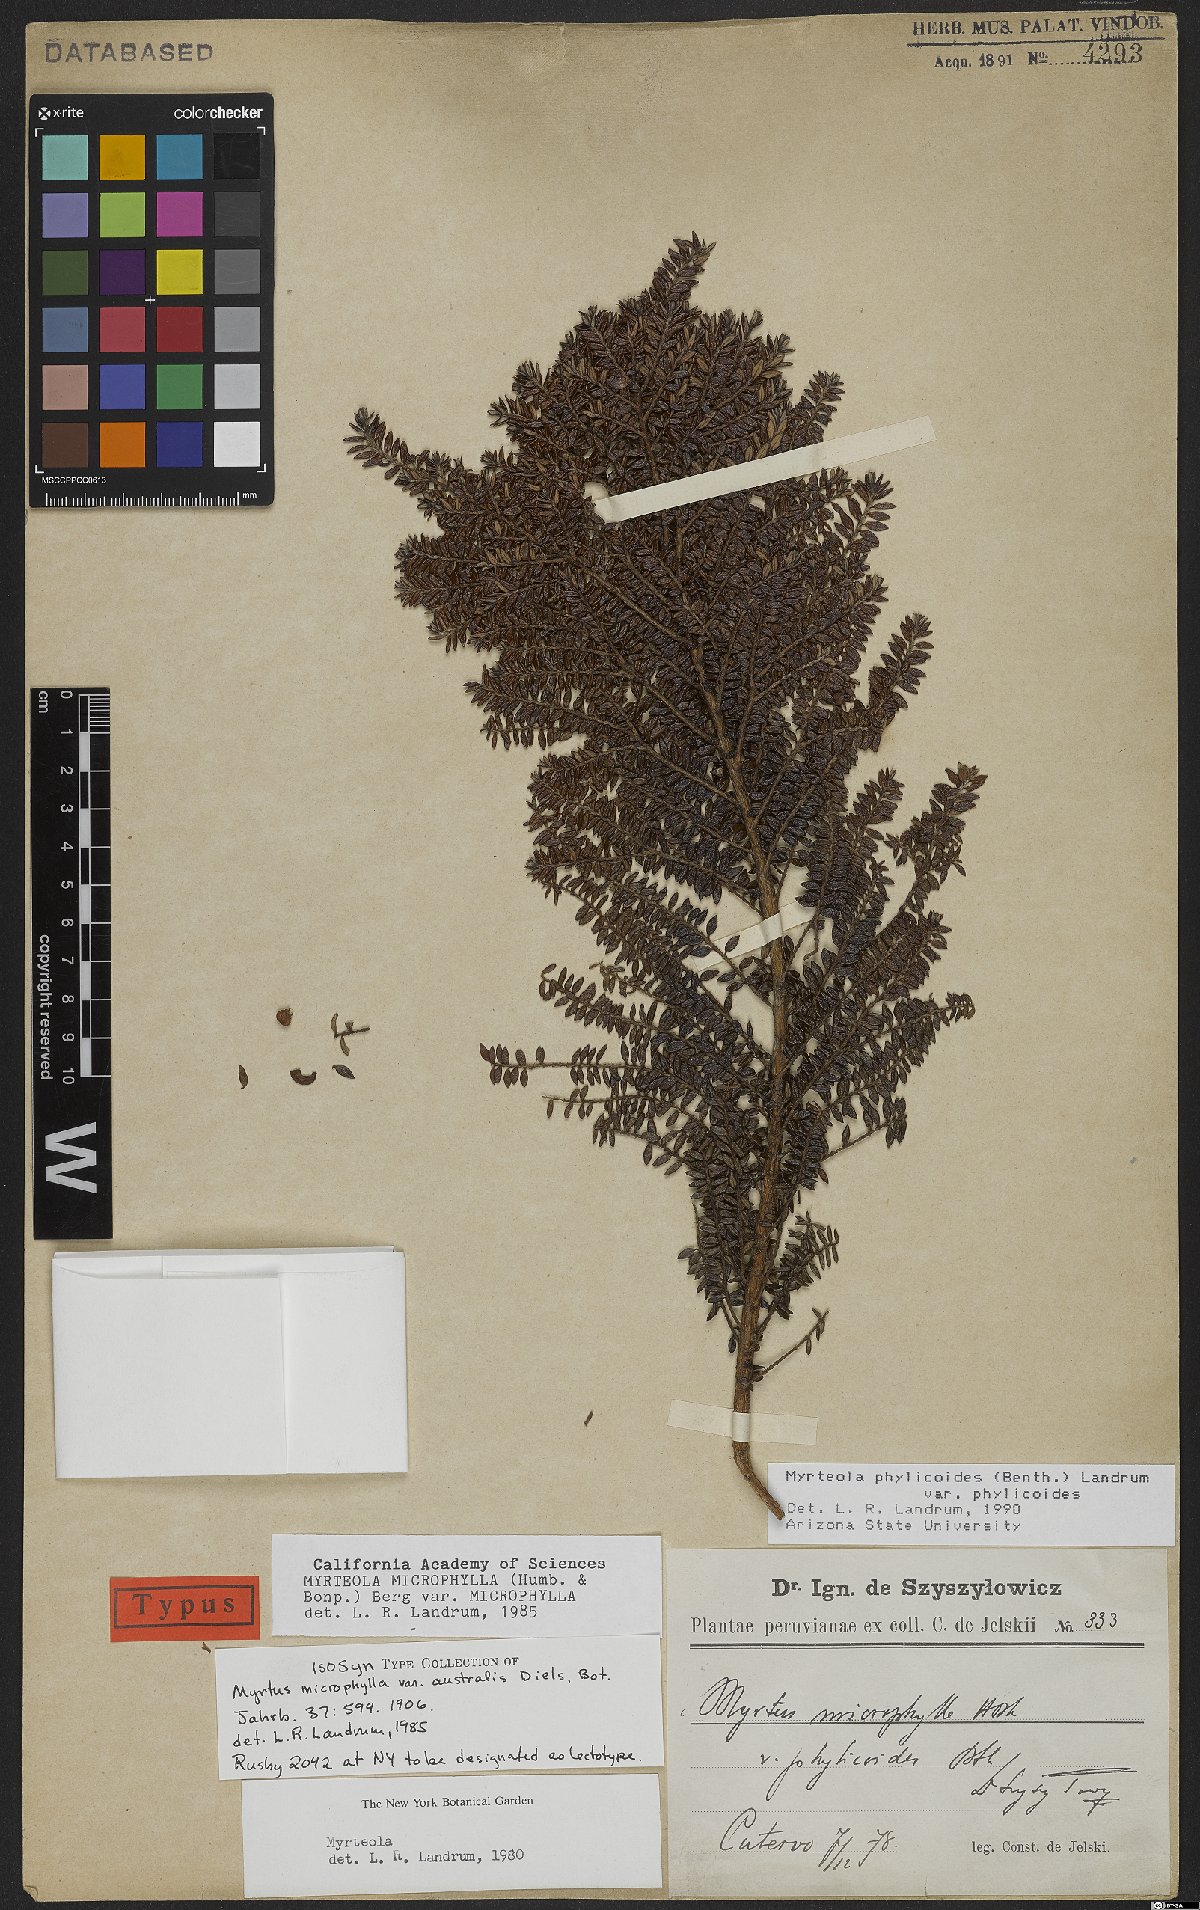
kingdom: Plantae
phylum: Tracheophyta
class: Magnoliopsida
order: Myrtales
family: Myrtaceae
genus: Myrteola
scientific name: Myrteola phylicoides
